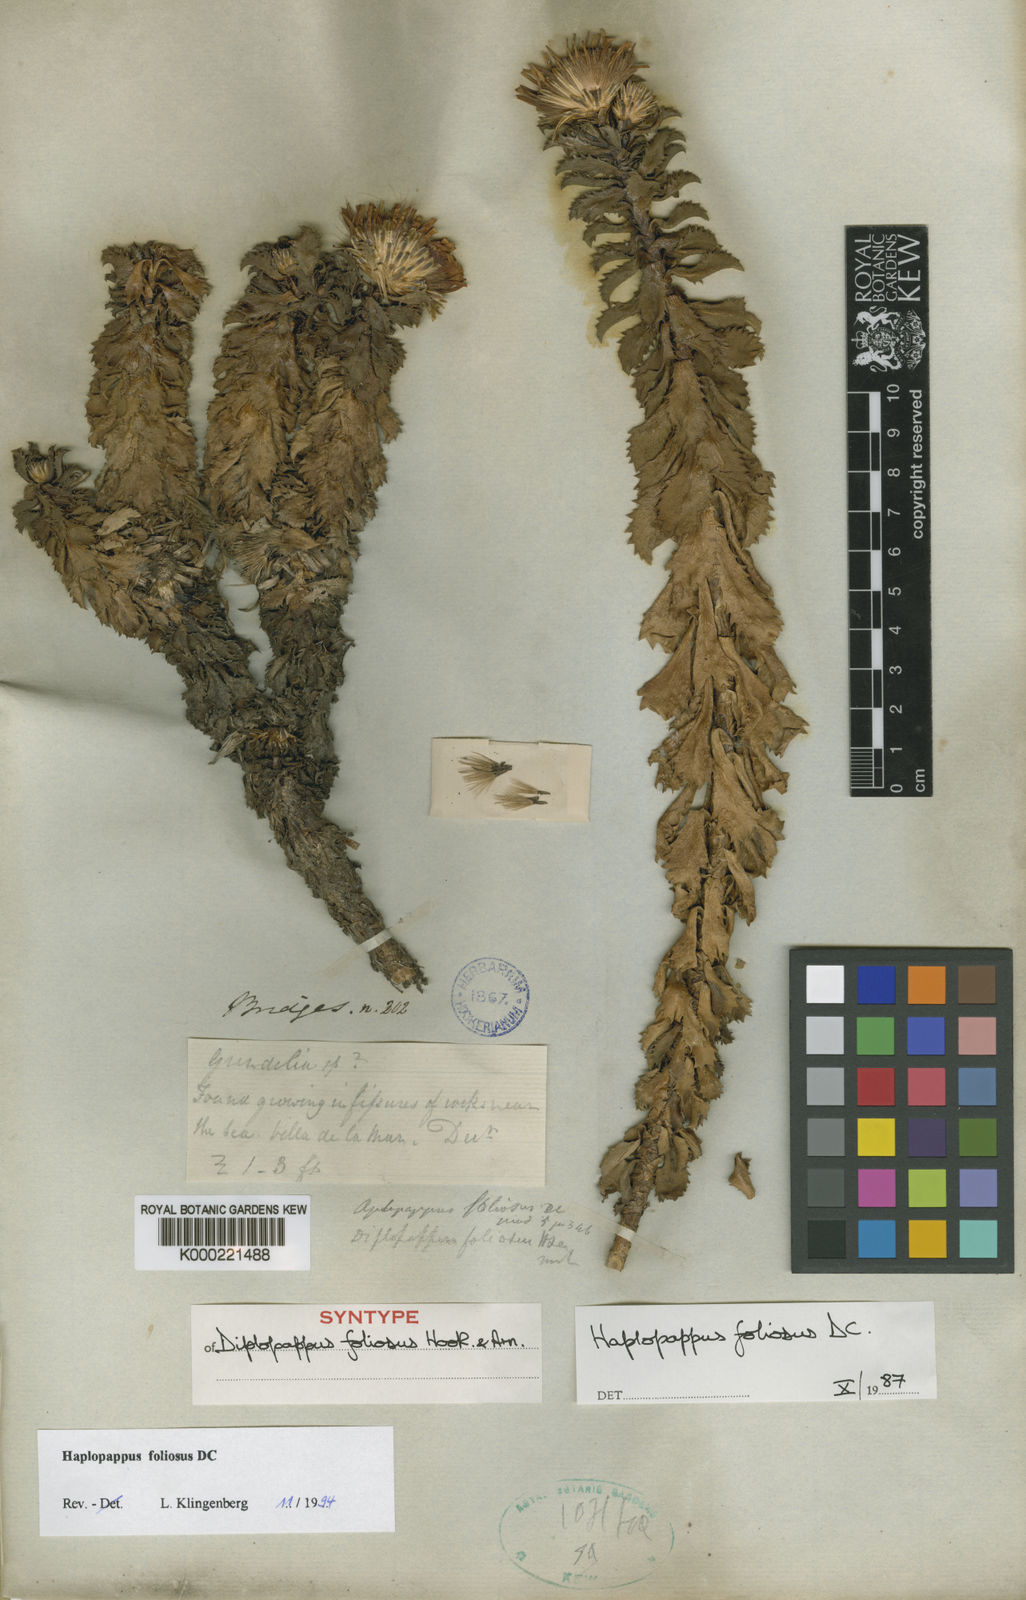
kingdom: Plantae
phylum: Tracheophyta
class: Magnoliopsida
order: Asterales
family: Asteraceae
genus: Haplopappus
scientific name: Haplopappus foliosus
